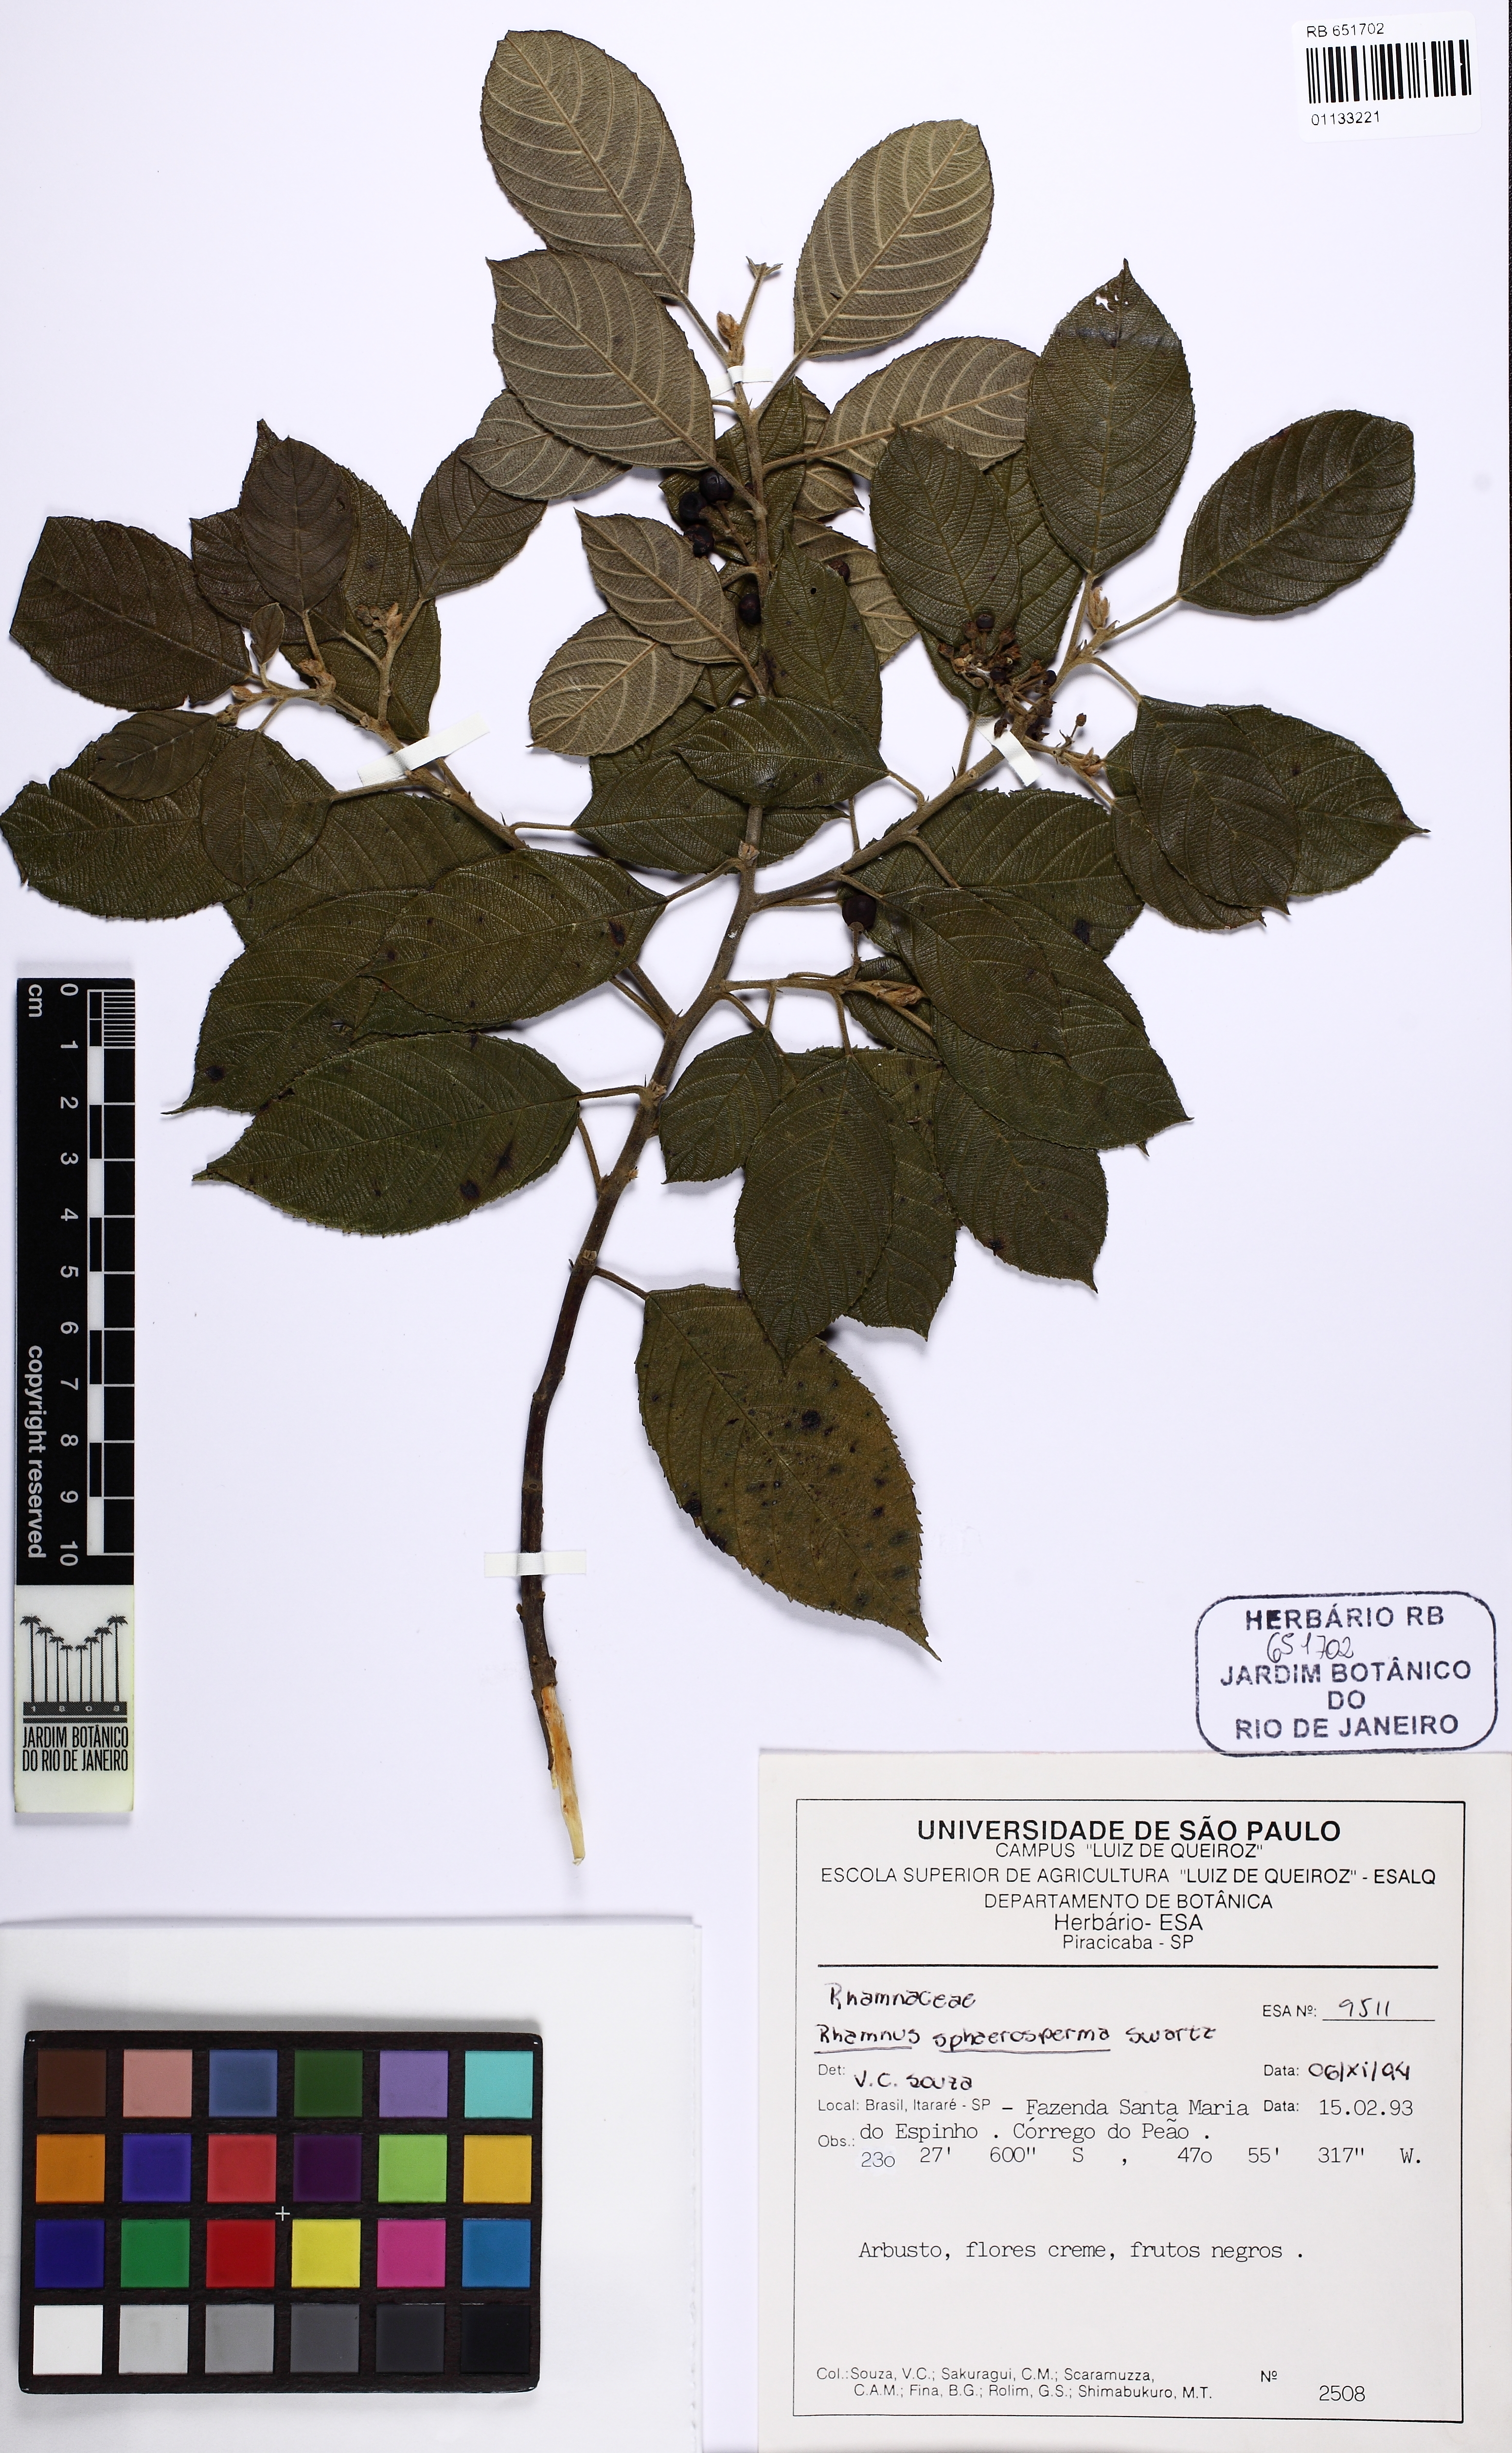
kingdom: Plantae
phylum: Tracheophyta
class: Magnoliopsida
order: Rosales
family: Rhamnaceae
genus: Frangula
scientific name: Frangula sphaerosperma
